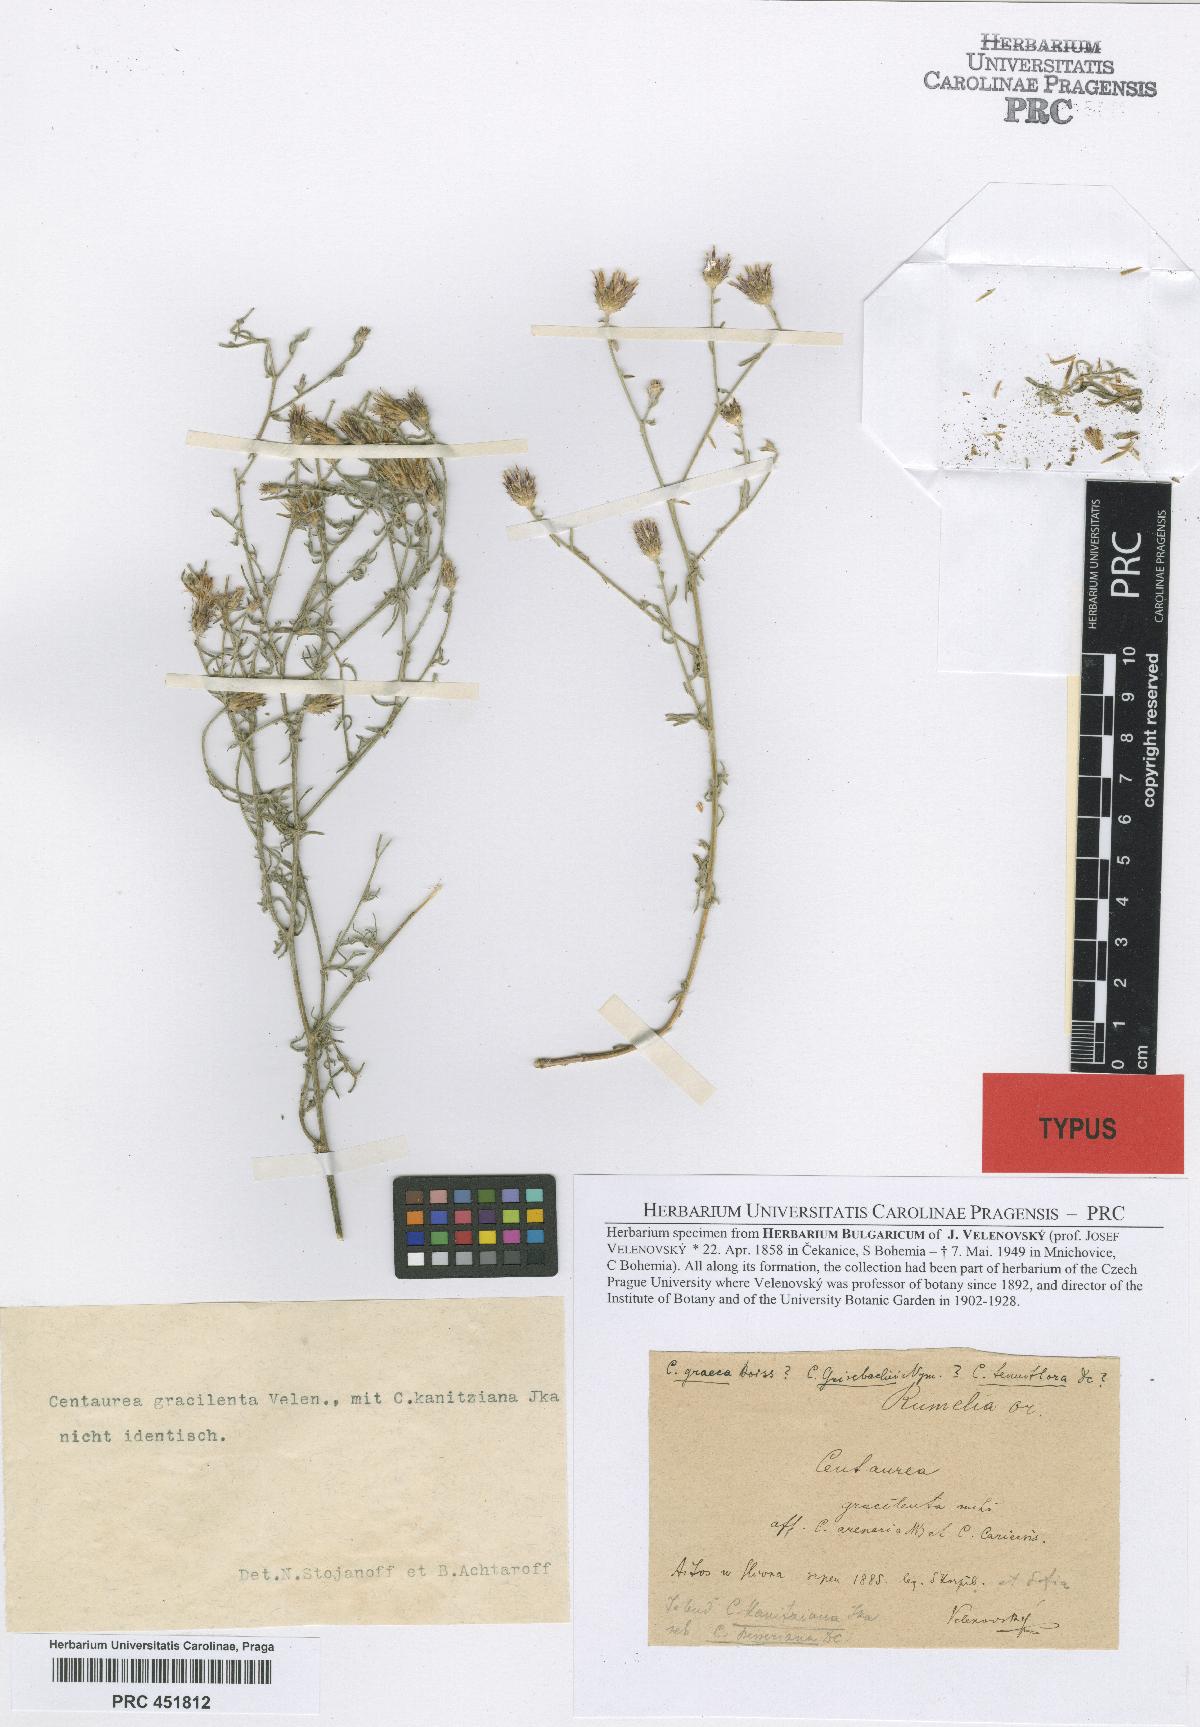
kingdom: Plantae
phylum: Tracheophyta
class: Magnoliopsida
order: Asterales
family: Asteraceae
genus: Centaurea
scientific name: Centaurea gracilenta
